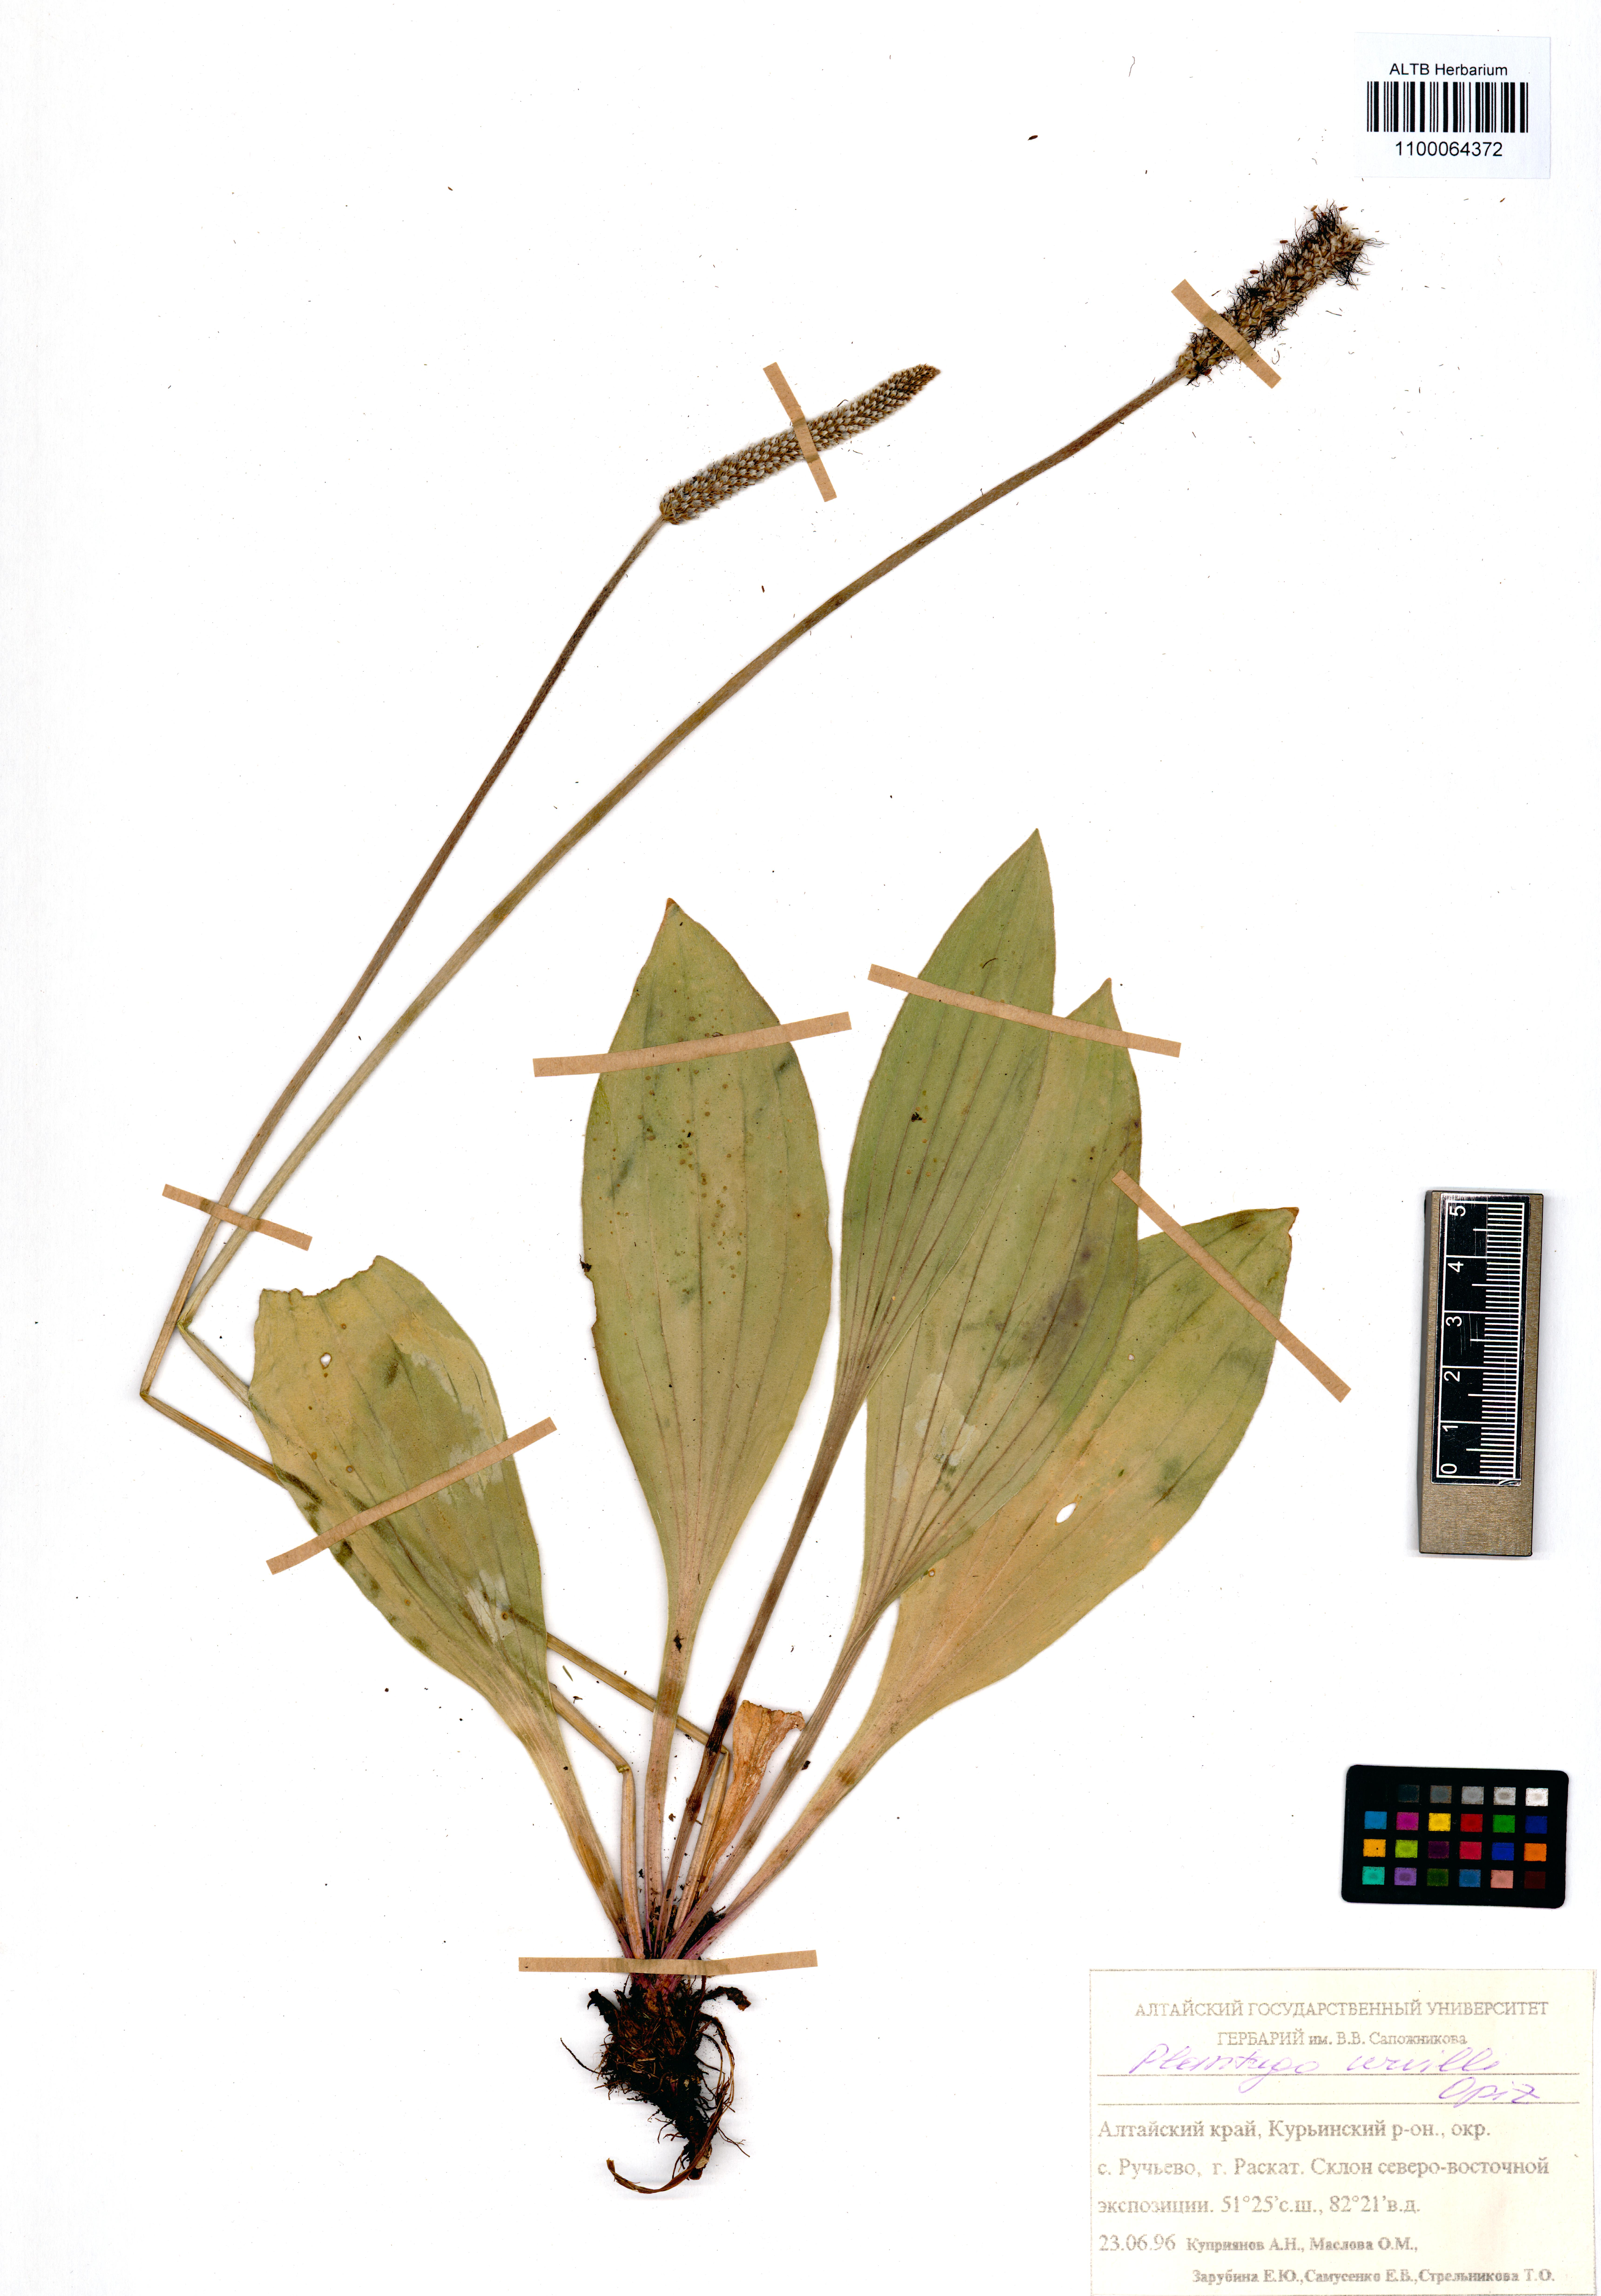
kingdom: Plantae
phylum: Tracheophyta
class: Magnoliopsida
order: Lamiales
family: Plantaginaceae
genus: Plantago
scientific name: Plantago urvillei
